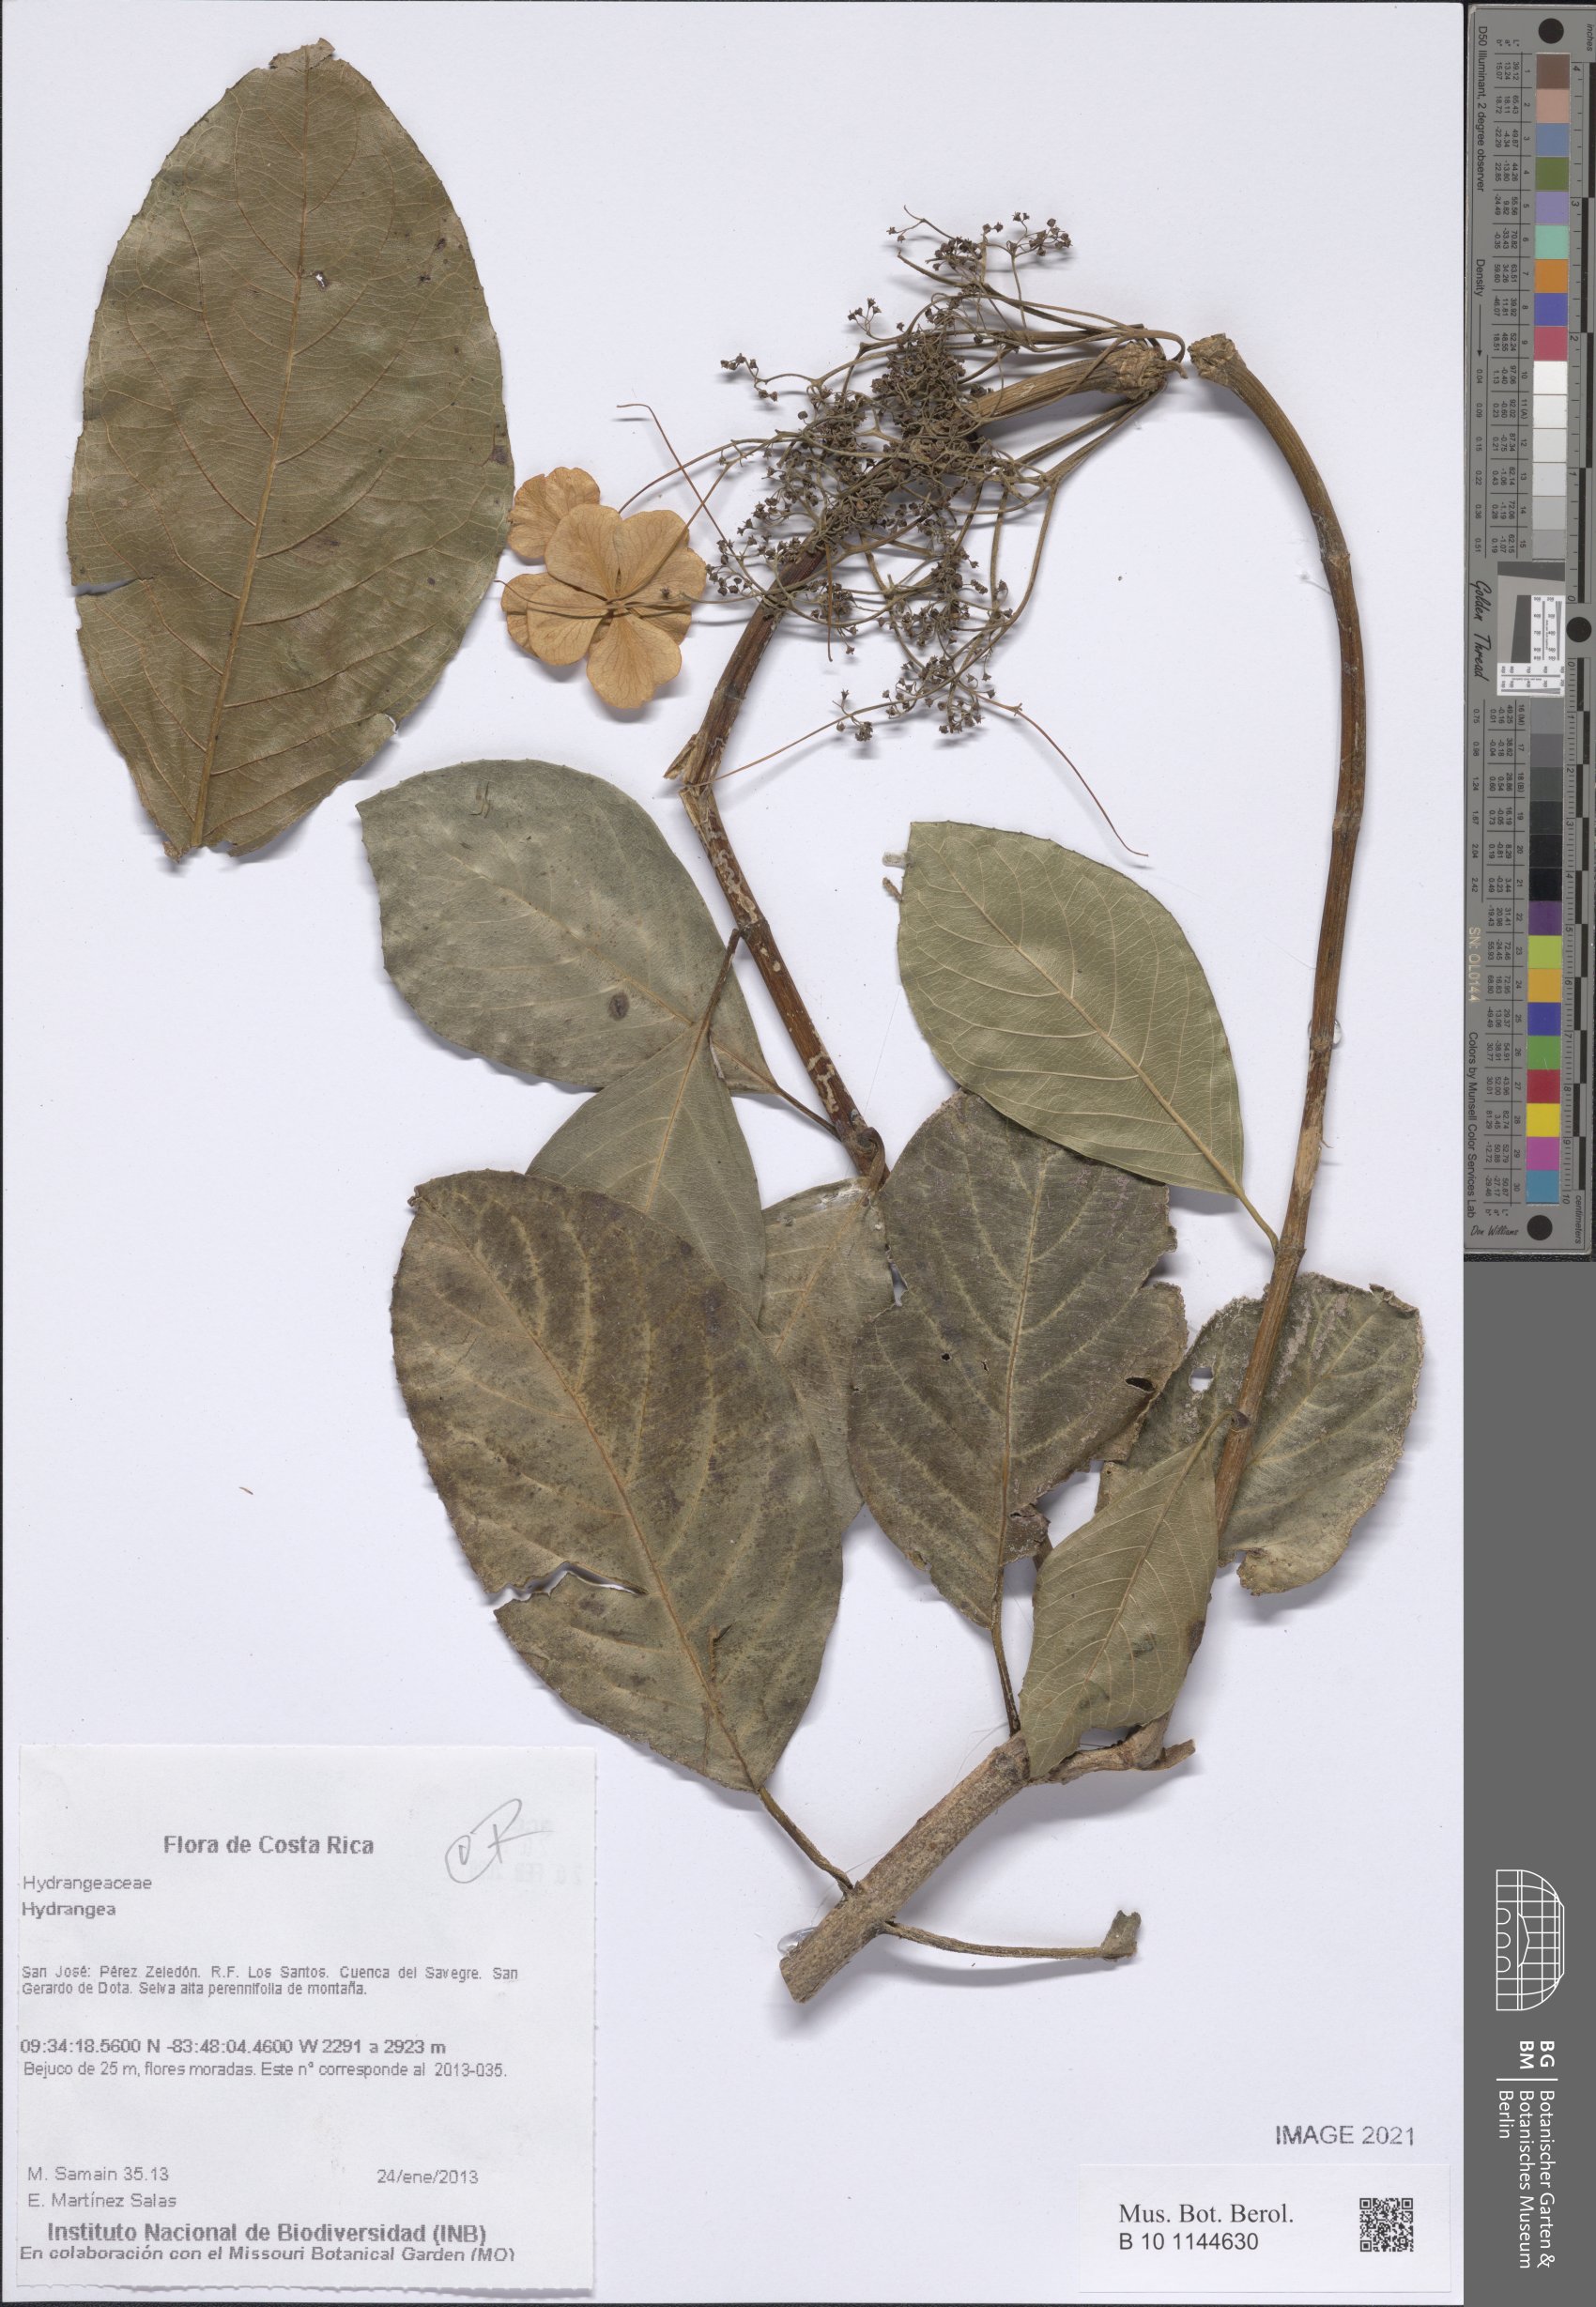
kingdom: Plantae
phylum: Tracheophyta
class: Magnoliopsida
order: Cornales
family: Hydrangeaceae
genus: Hydrangea
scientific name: Hydrangea
